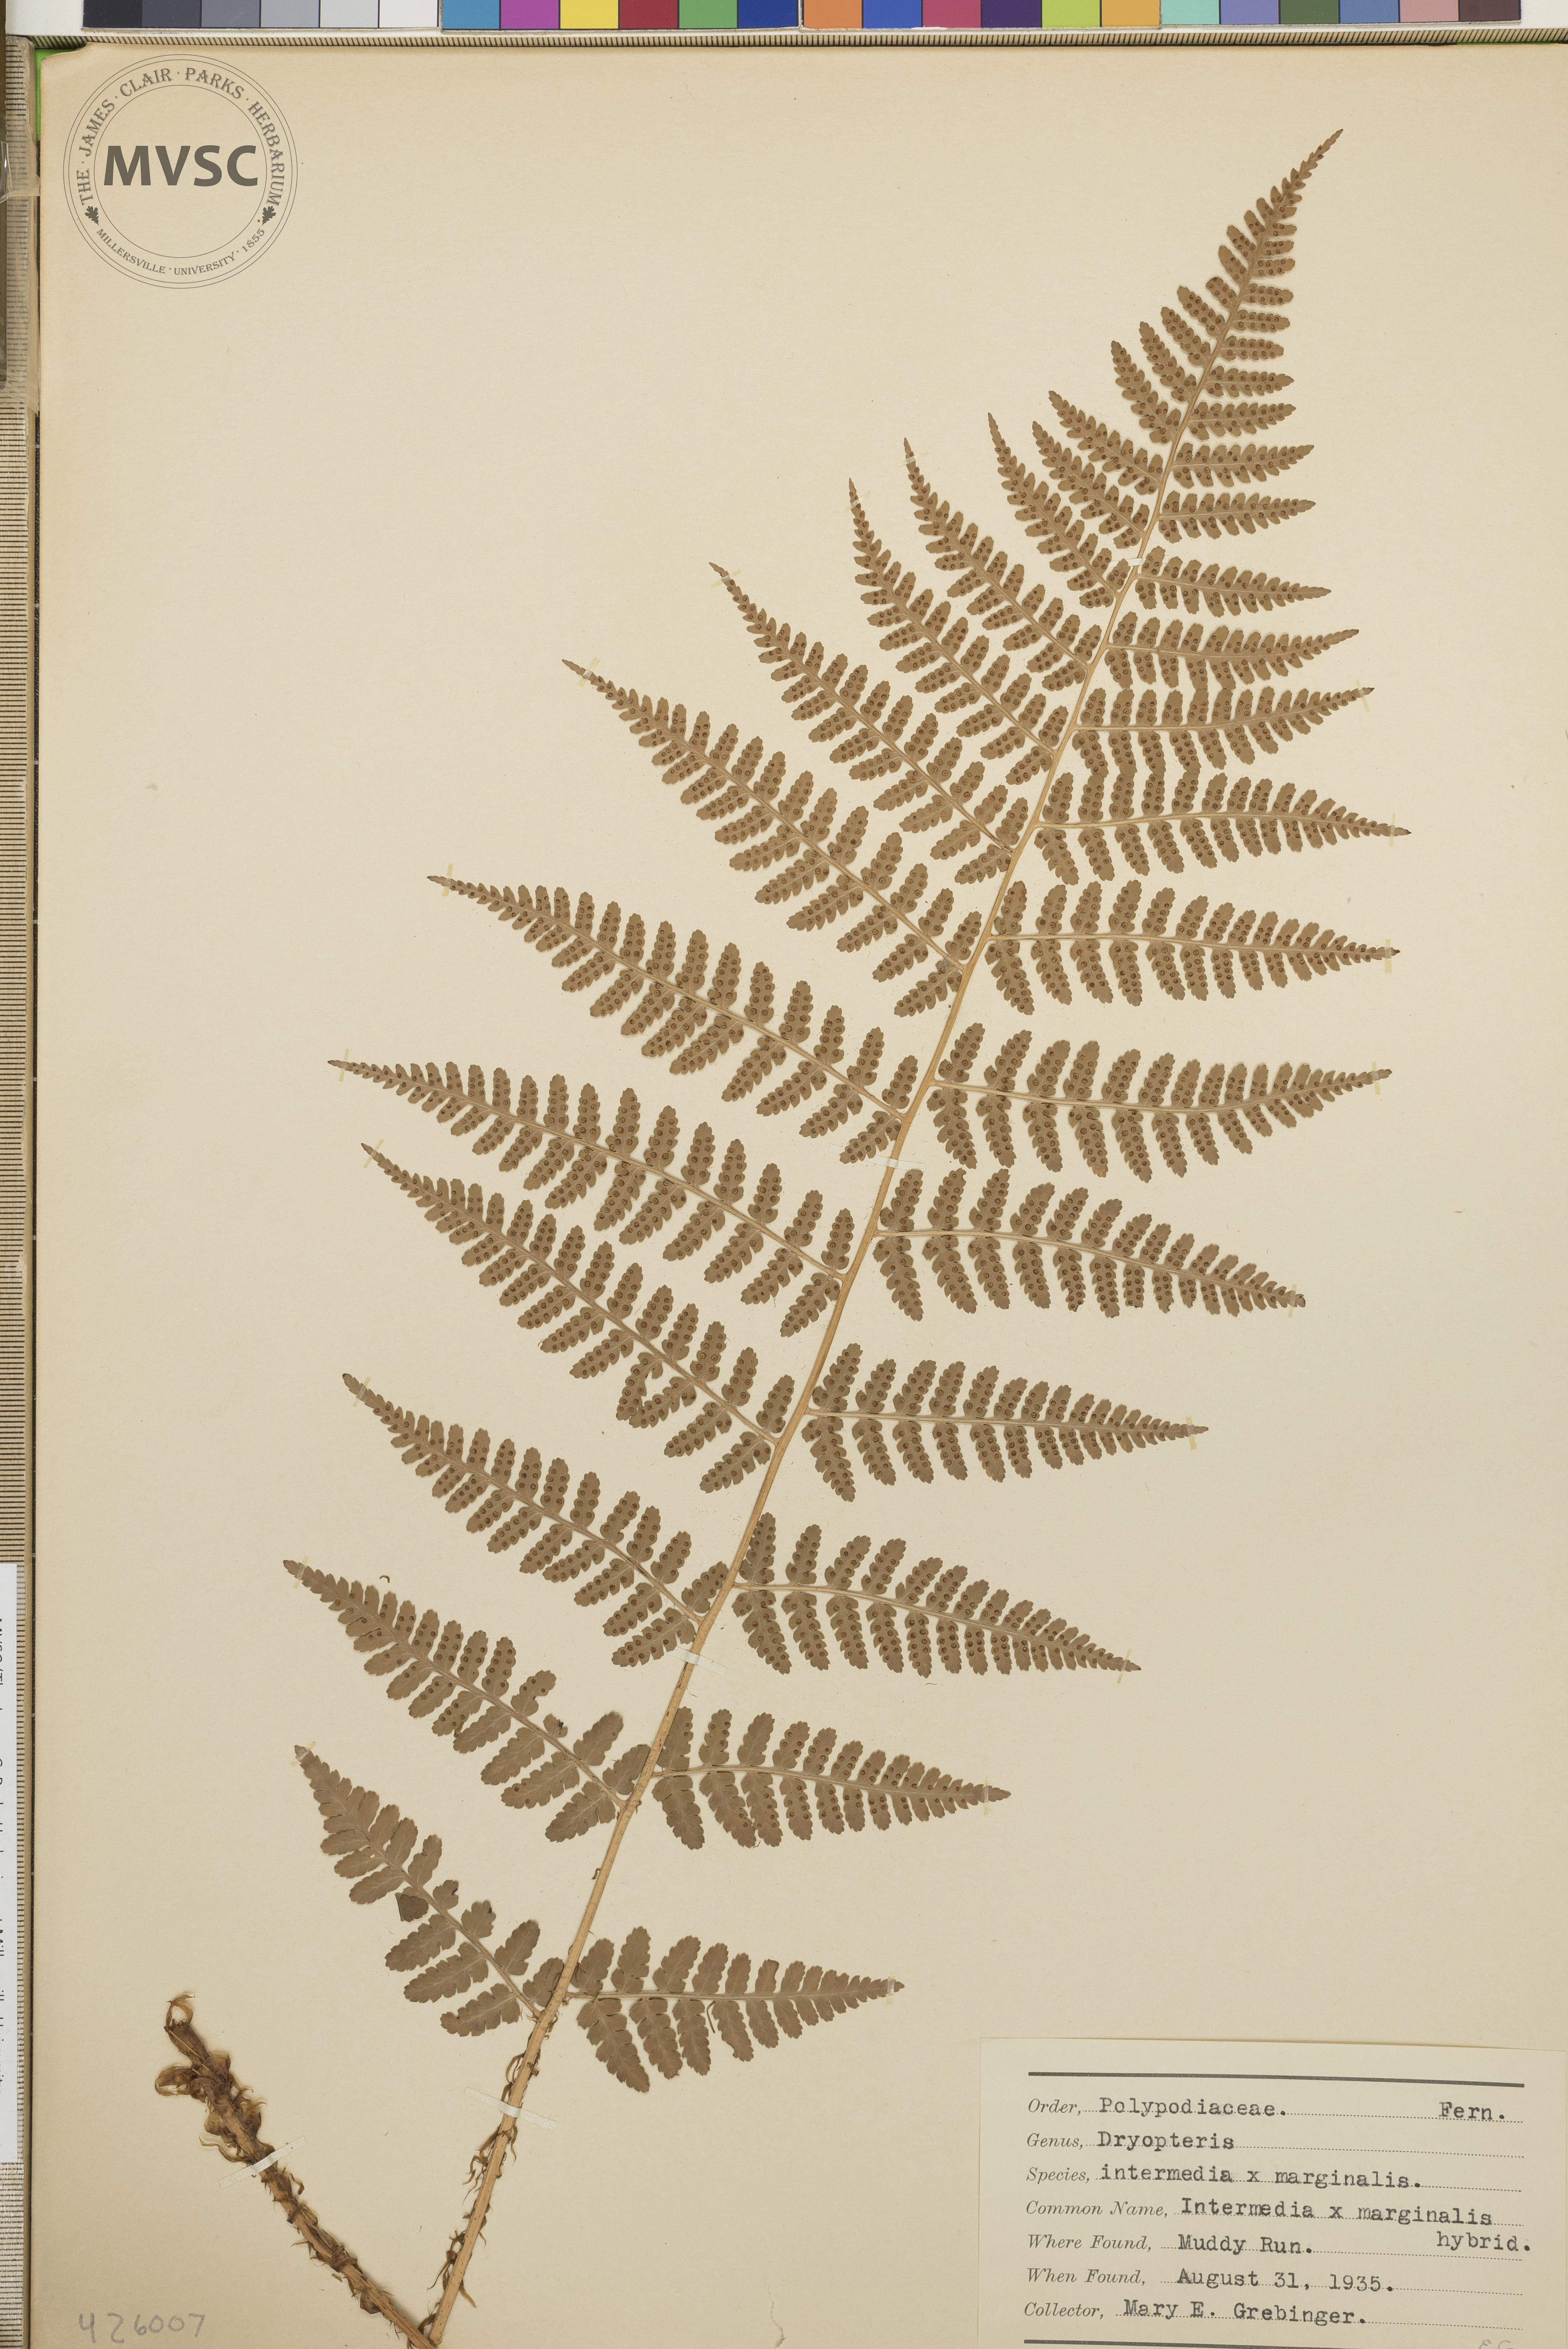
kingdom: Plantae
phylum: Tracheophyta
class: Polypodiopsida
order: Polypodiales
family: Dryopteridaceae
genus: Dryopteris
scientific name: Dryopteris
